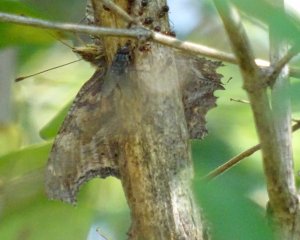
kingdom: Animalia
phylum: Arthropoda
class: Insecta
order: Lepidoptera
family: Nymphalidae
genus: Polygonia
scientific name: Polygonia
